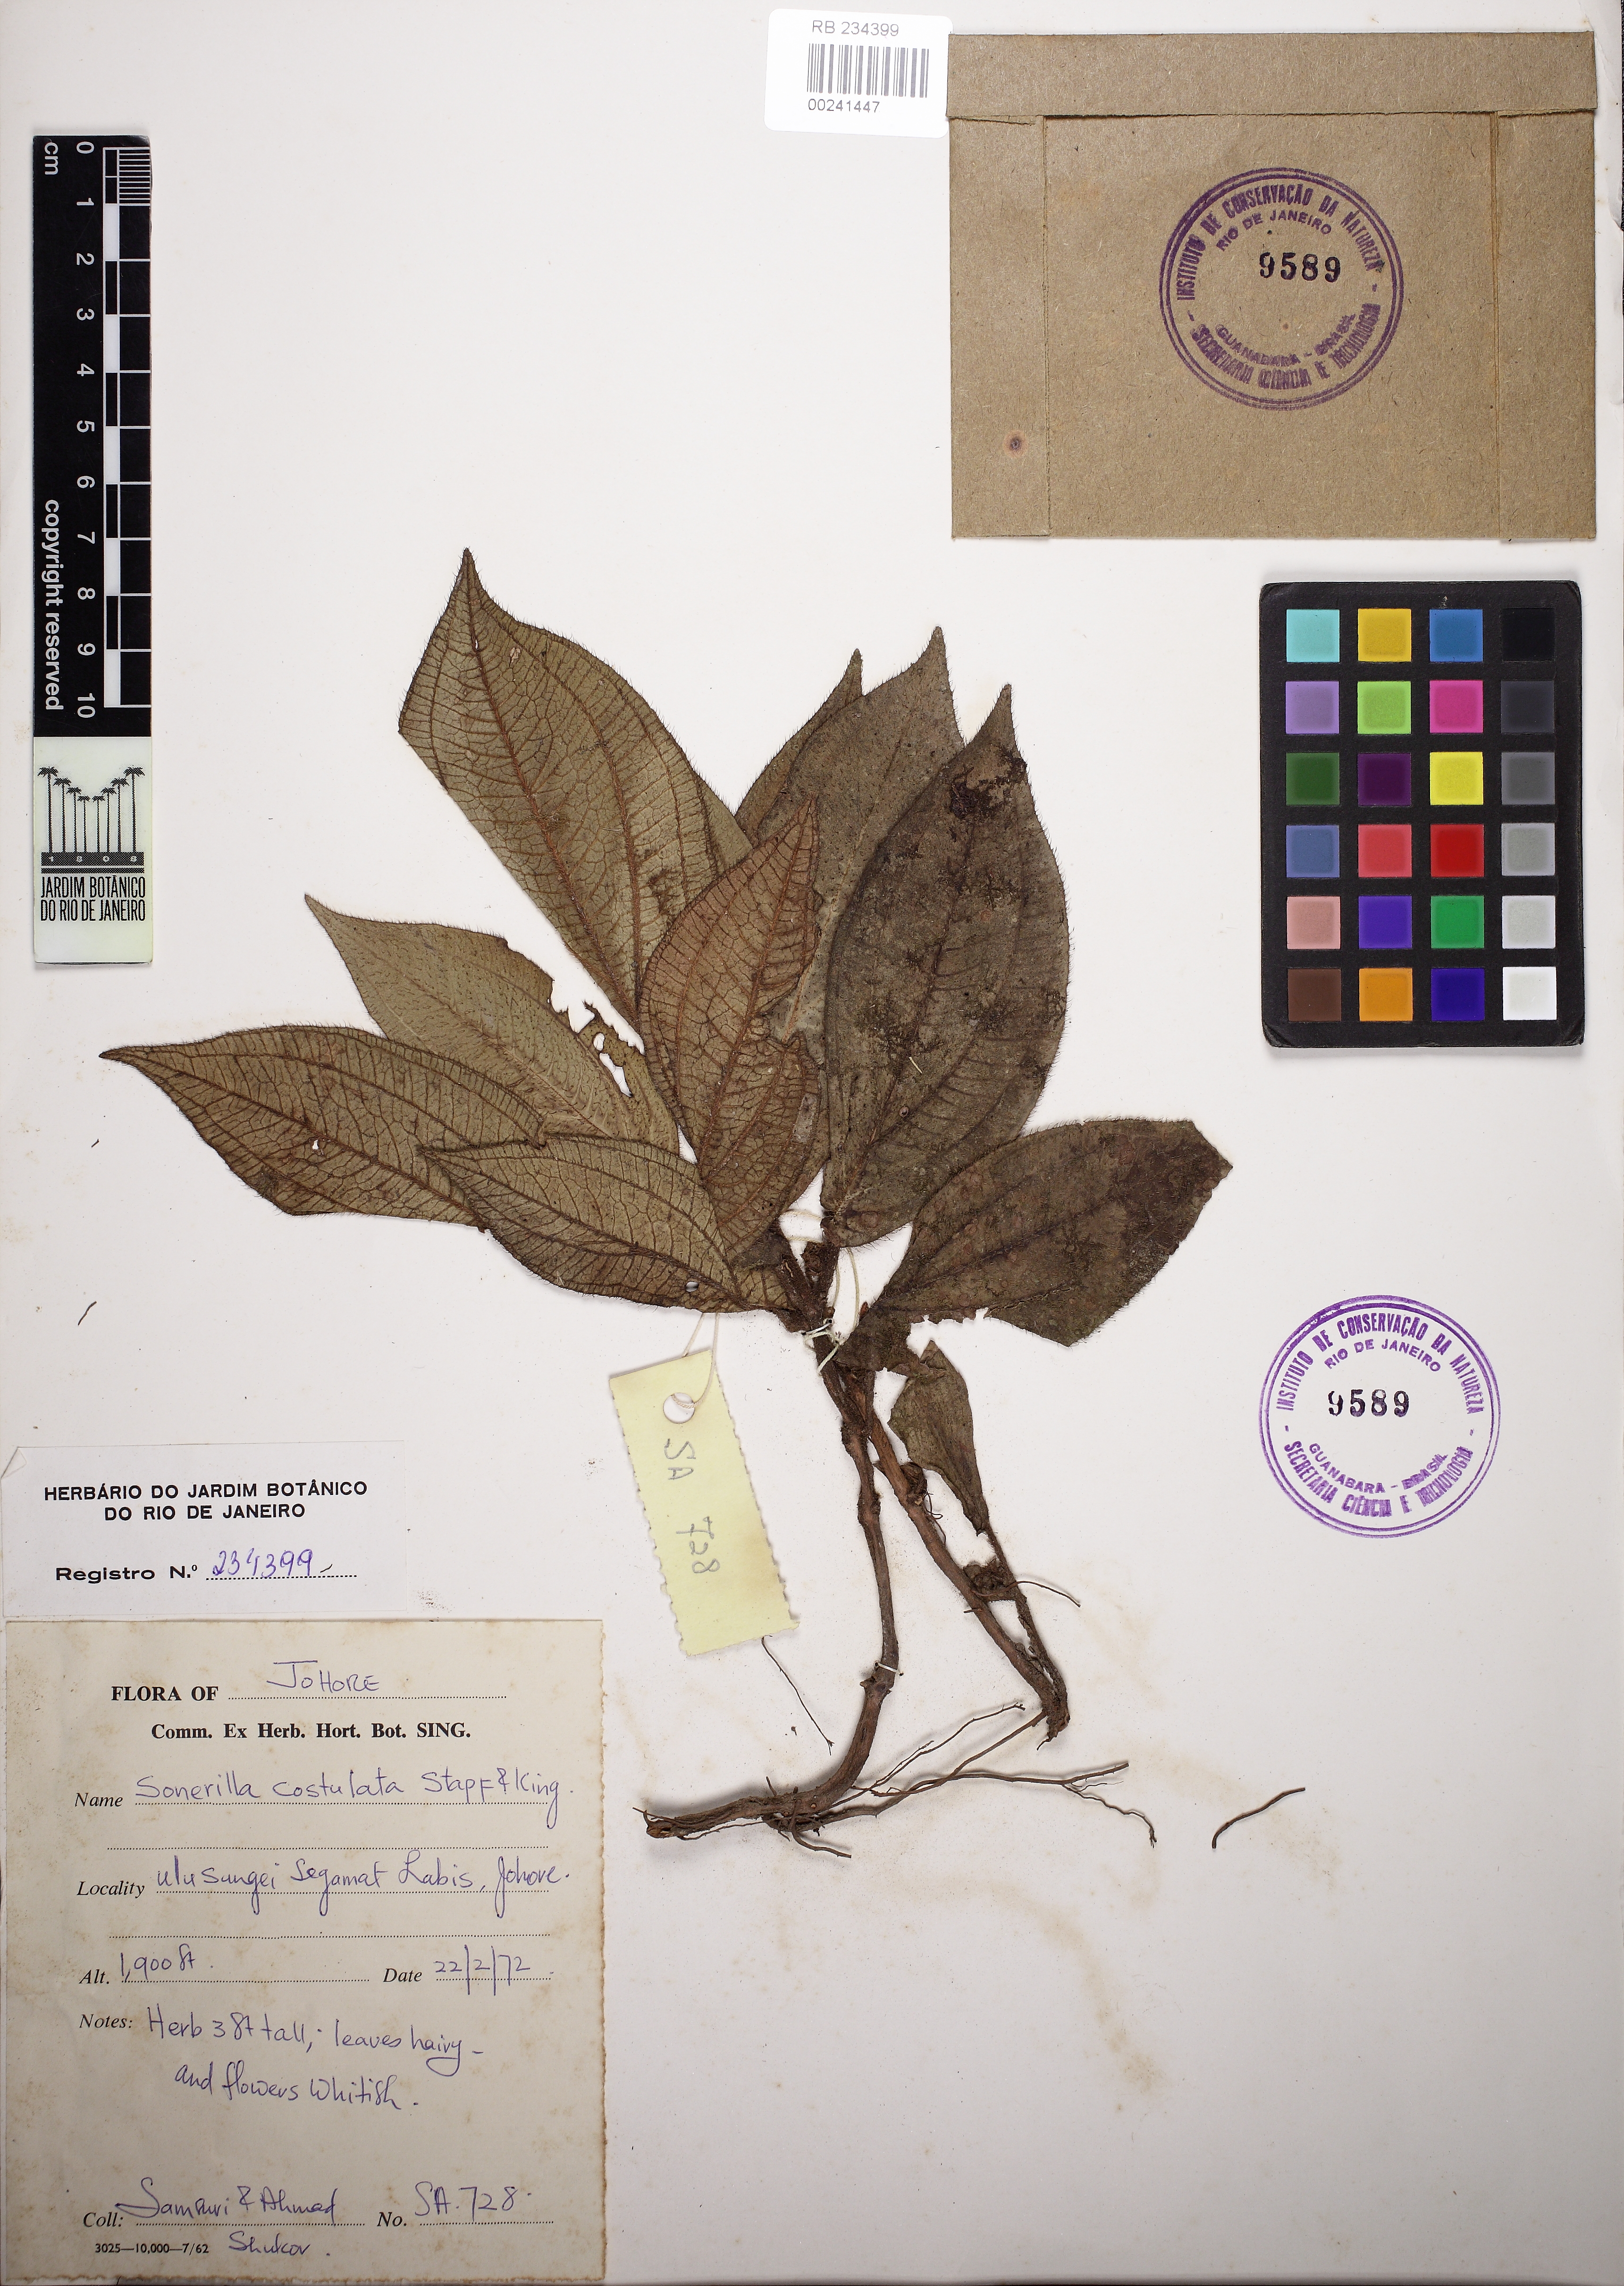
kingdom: Plantae
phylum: Tracheophyta
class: Magnoliopsida
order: Myrtales
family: Melastomataceae
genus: Sonerila
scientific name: Sonerila costulata
